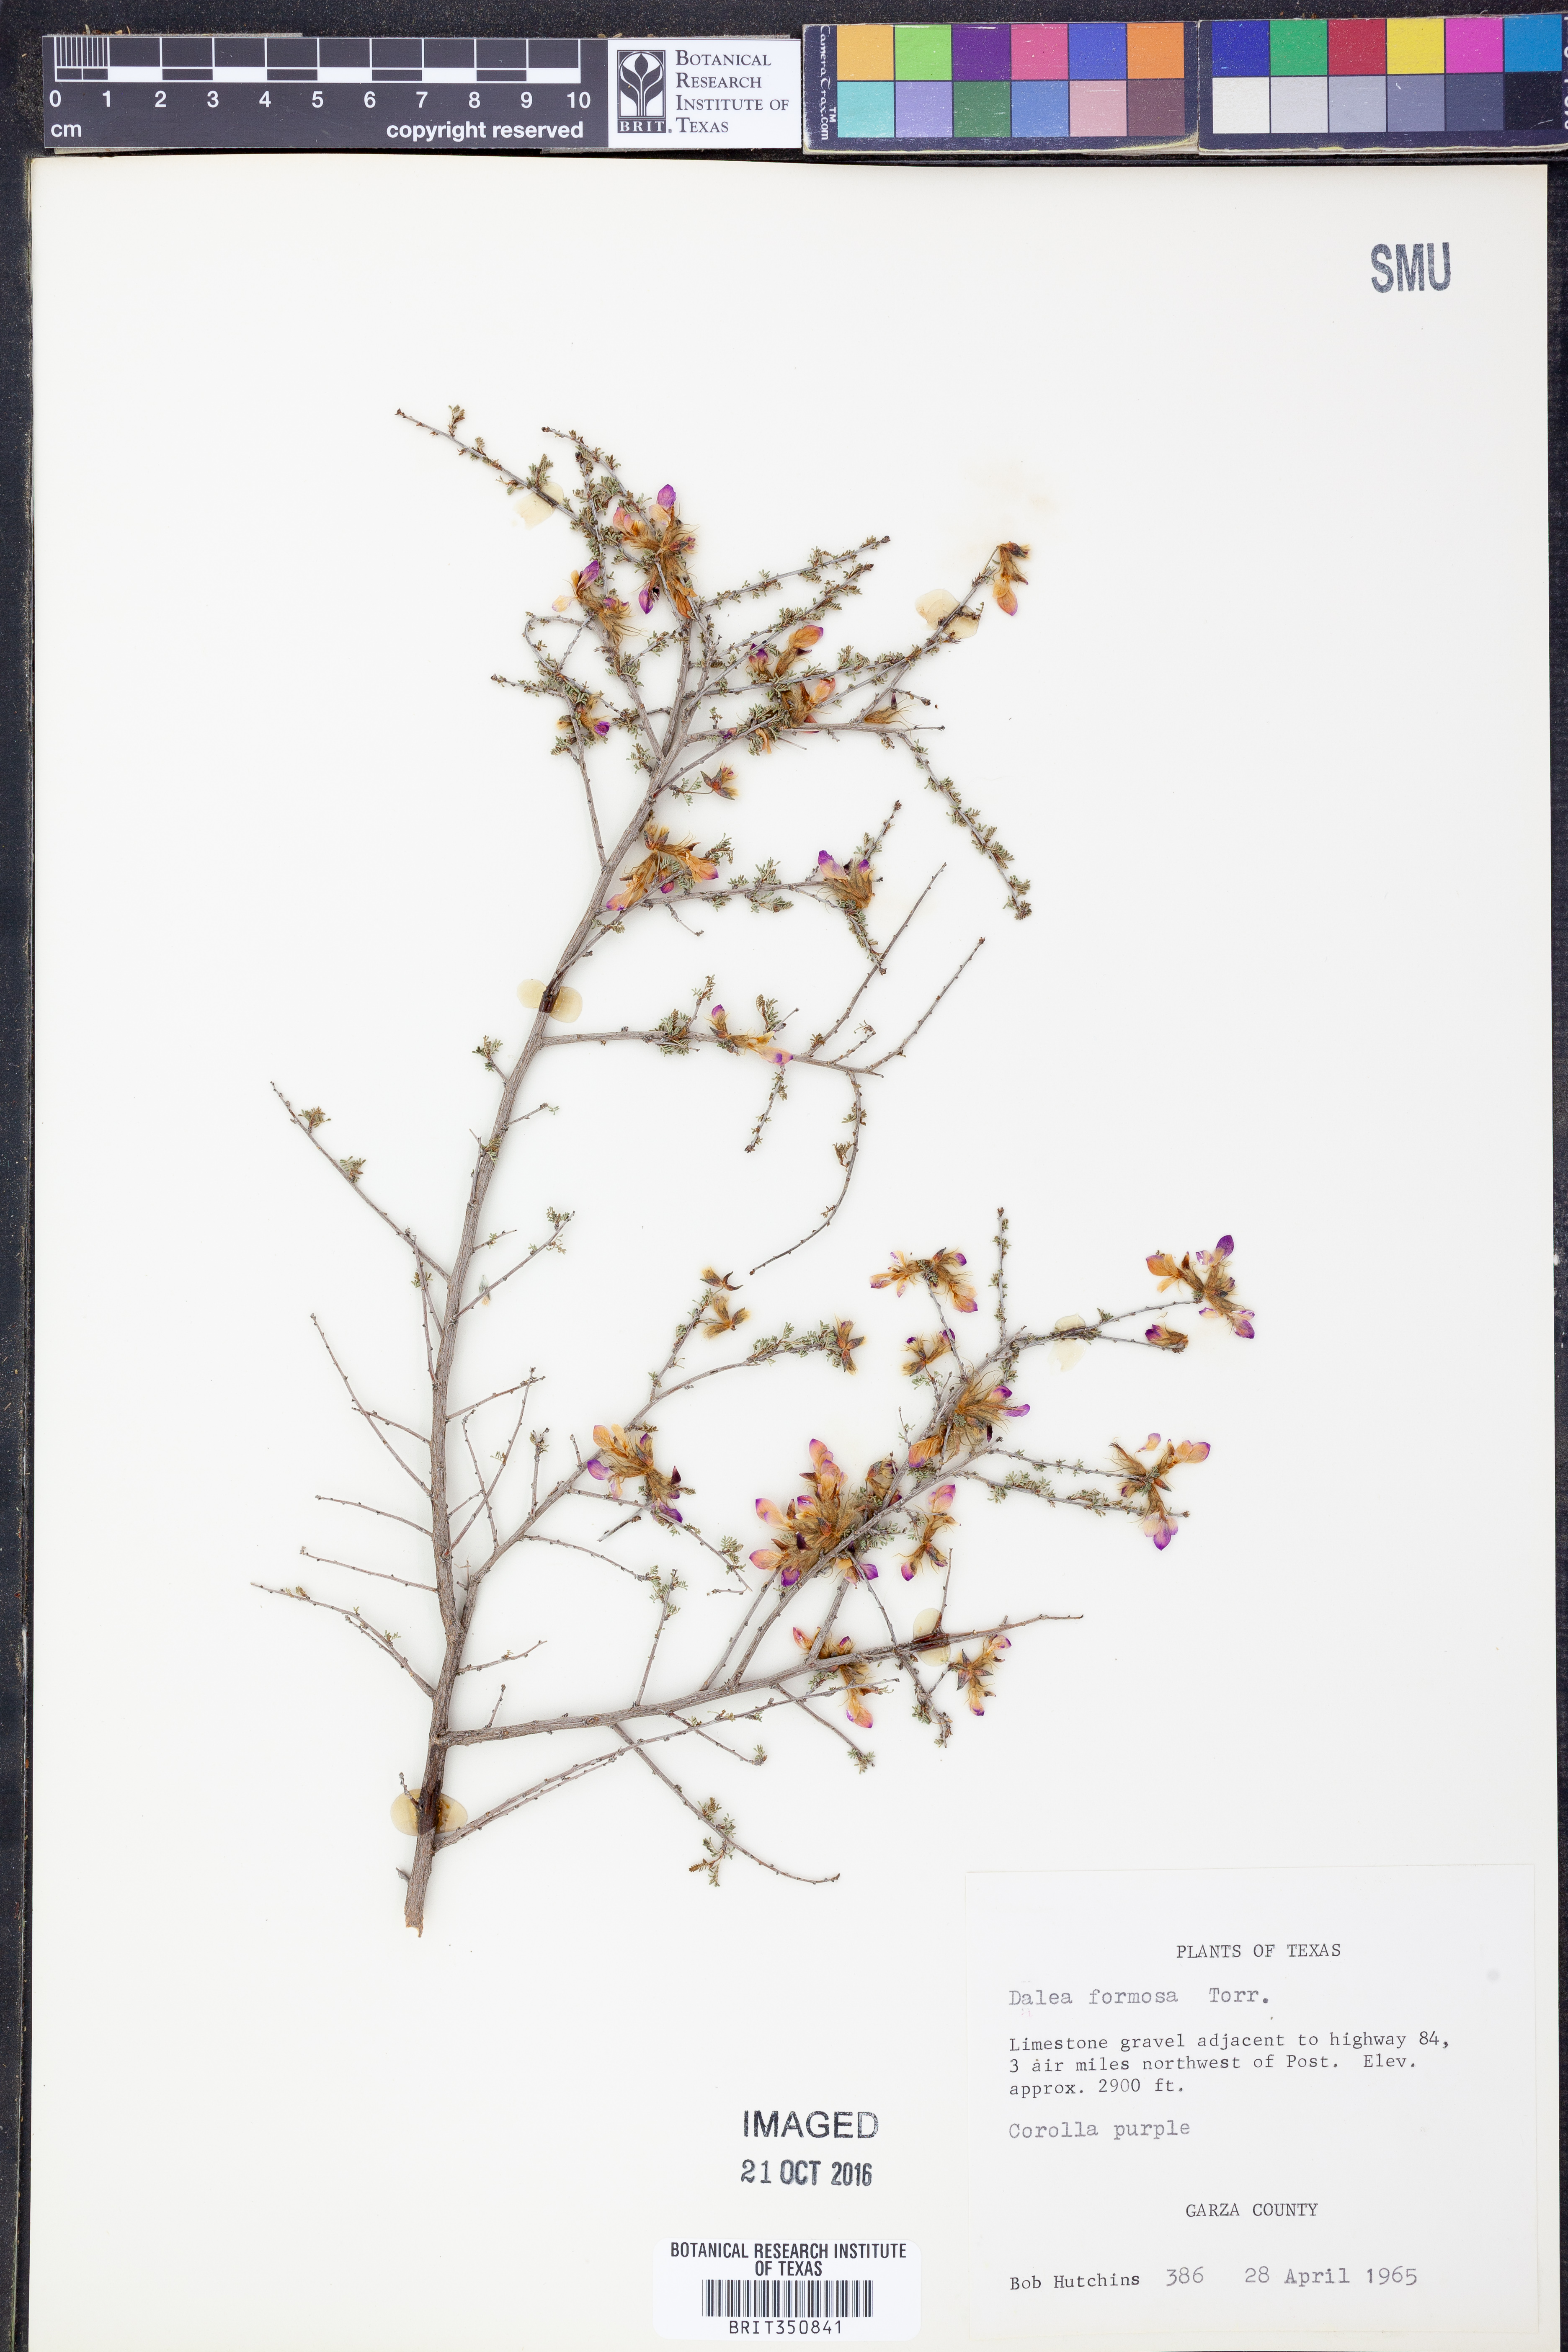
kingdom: Plantae
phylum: Tracheophyta
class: Magnoliopsida
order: Fabales
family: Fabaceae
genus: Dalea
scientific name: Dalea formosa
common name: Feather-plume dalea
